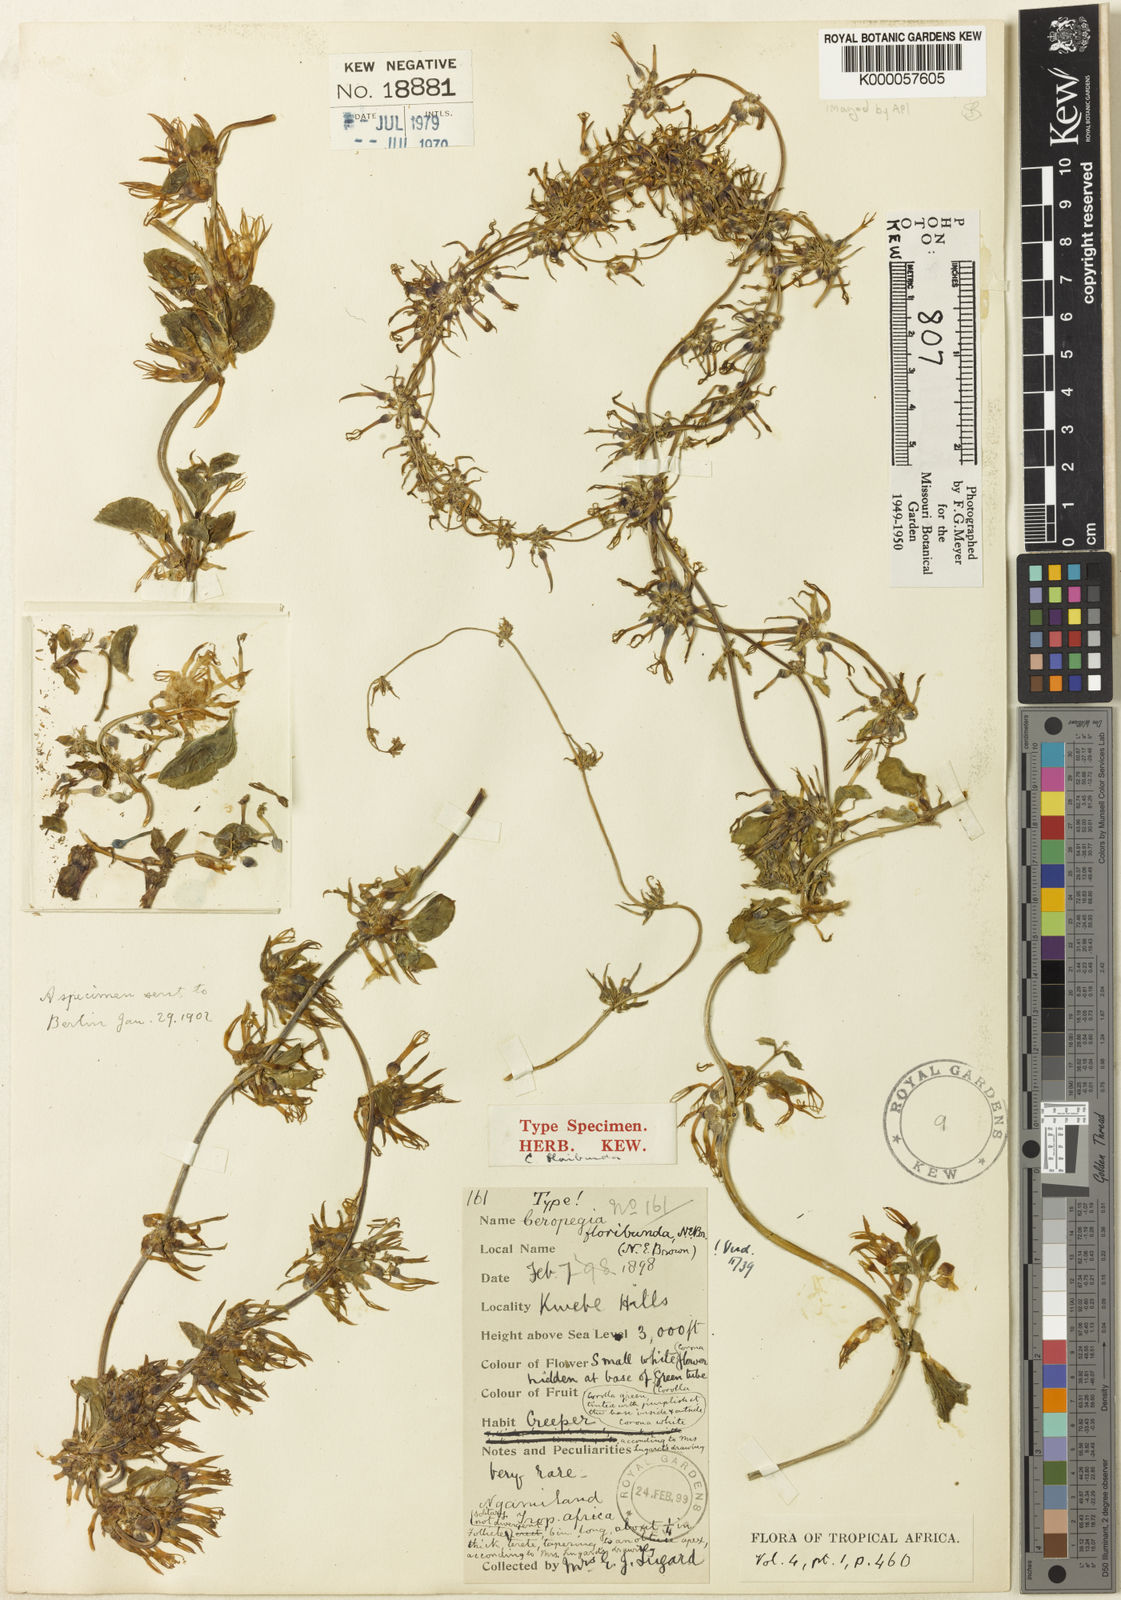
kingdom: Plantae
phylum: Tracheophyta
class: Magnoliopsida
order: Gentianales
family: Apocynaceae
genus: Ceropegia
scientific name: Ceropegia floribunda
